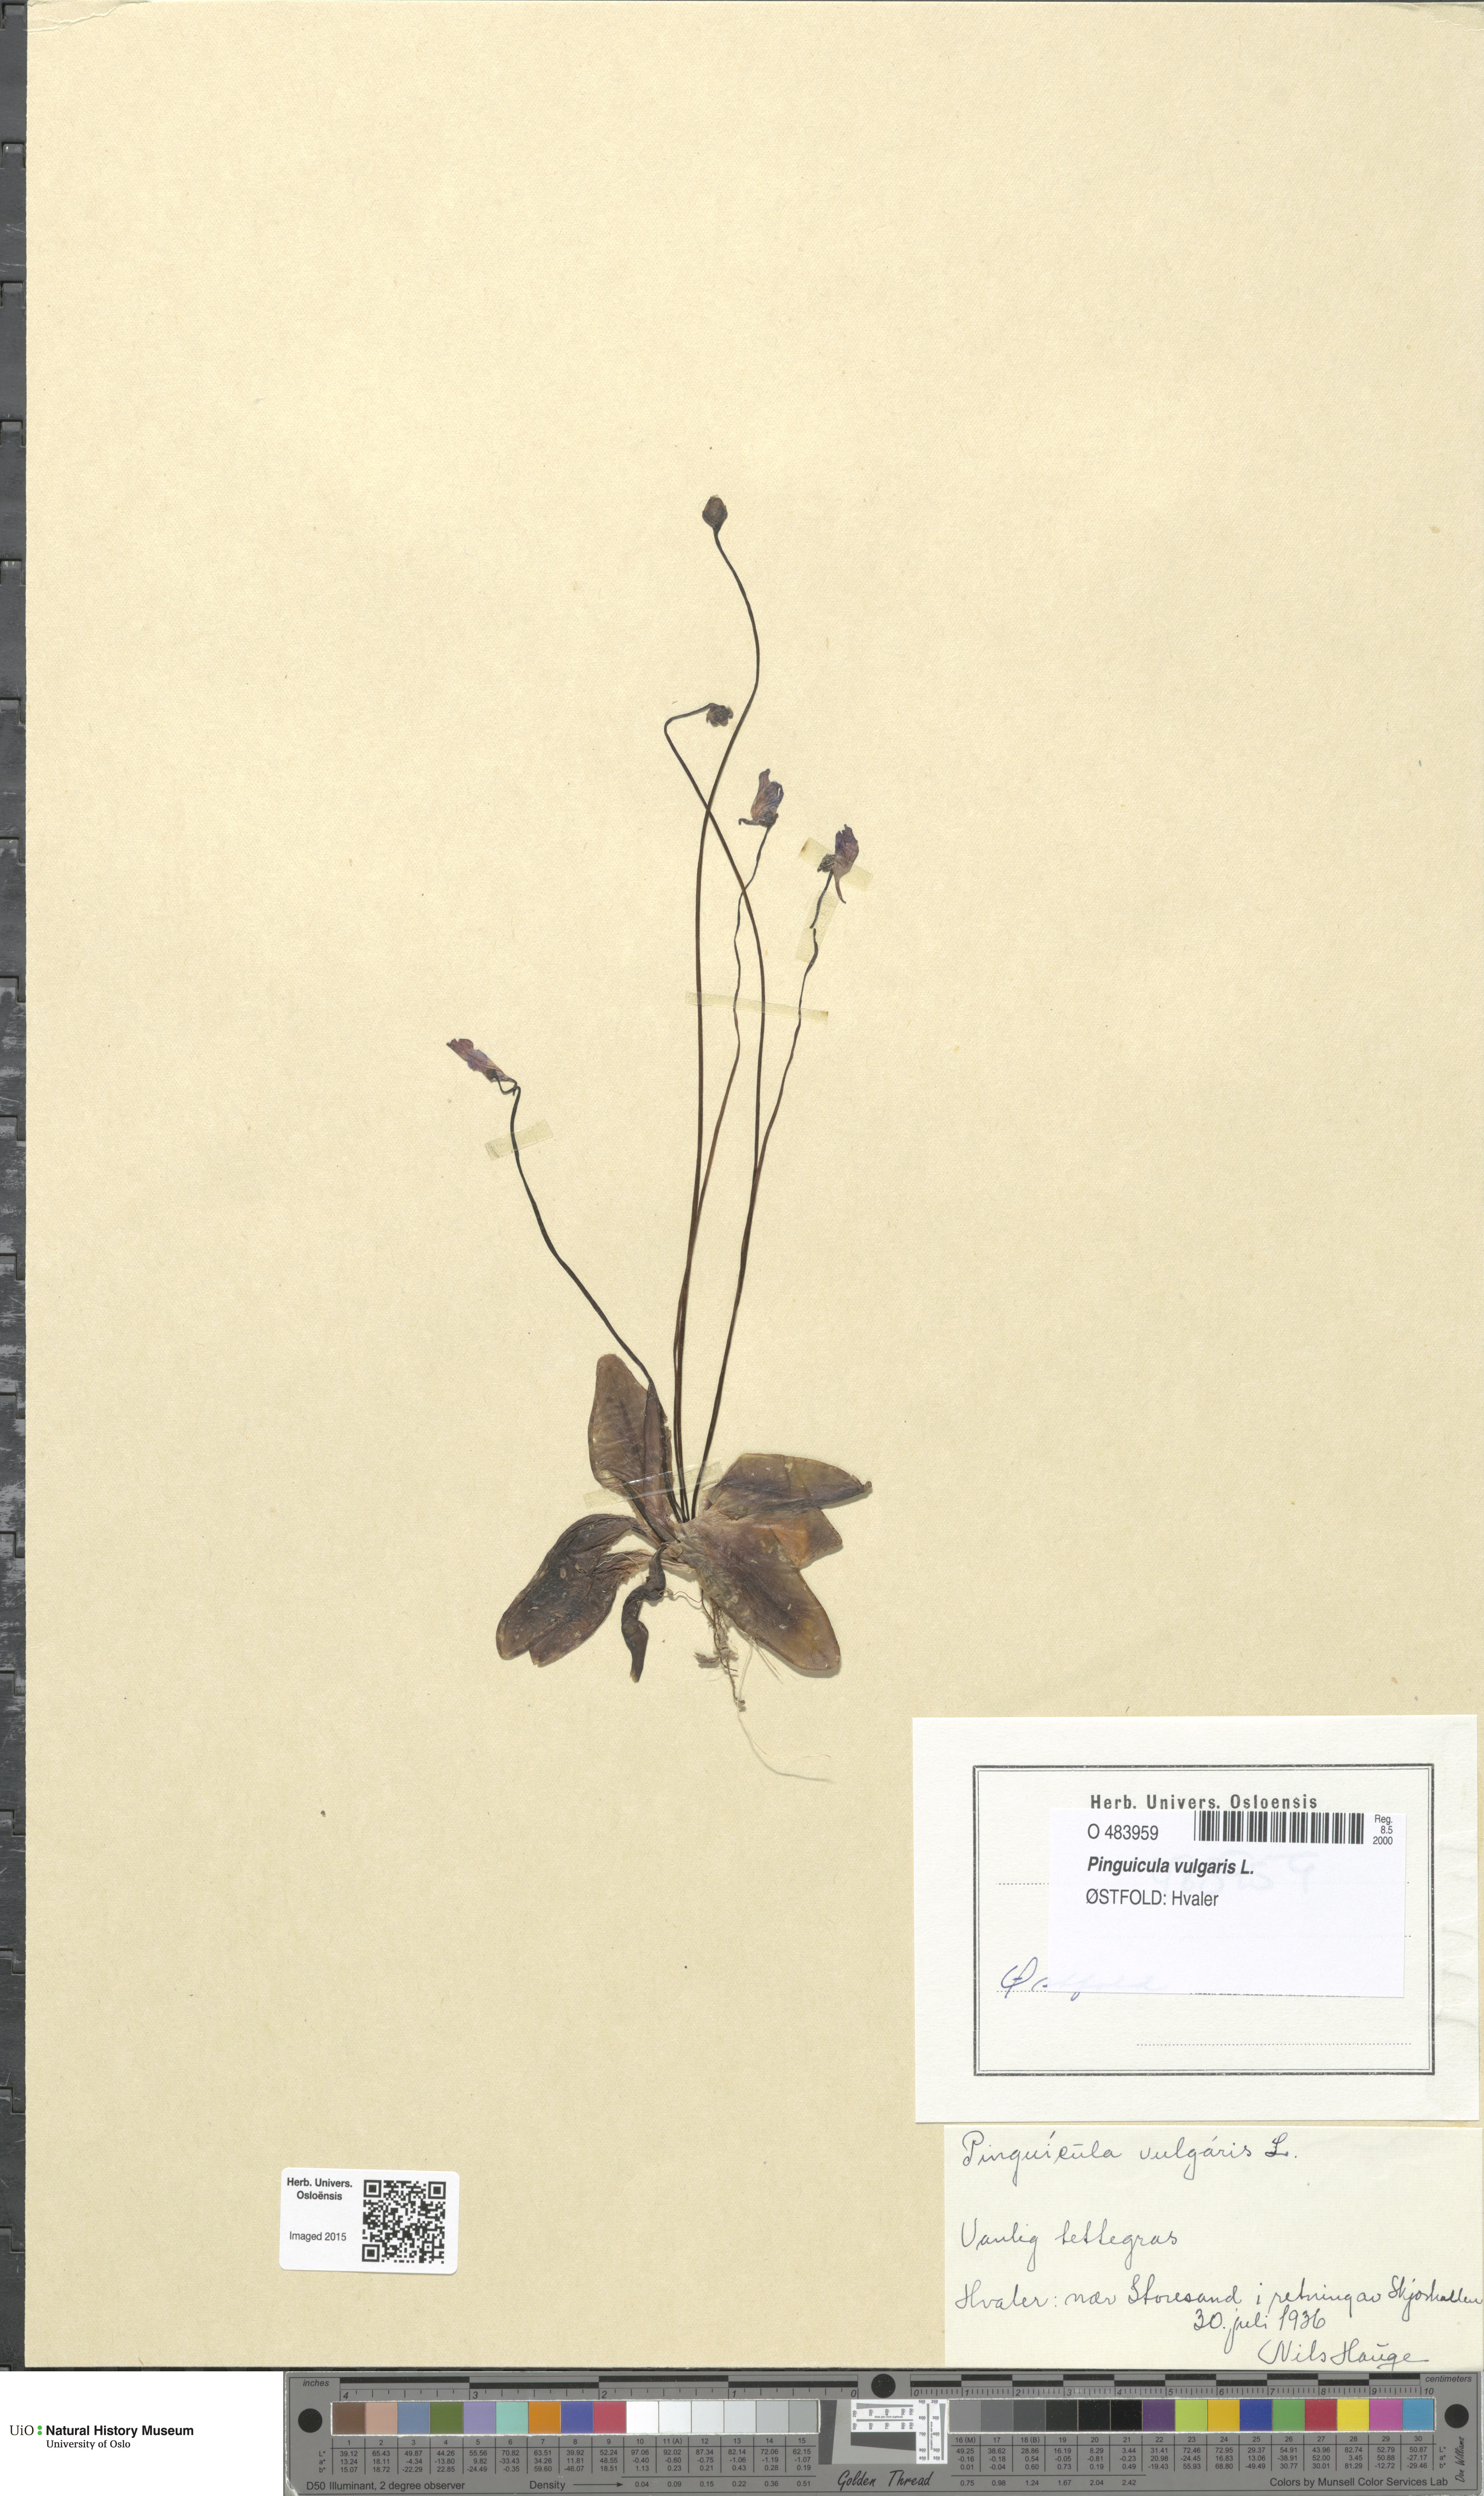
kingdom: Plantae
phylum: Tracheophyta
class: Magnoliopsida
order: Lamiales
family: Lentibulariaceae
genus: Pinguicula
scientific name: Pinguicula vulgaris
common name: Common butterwort
